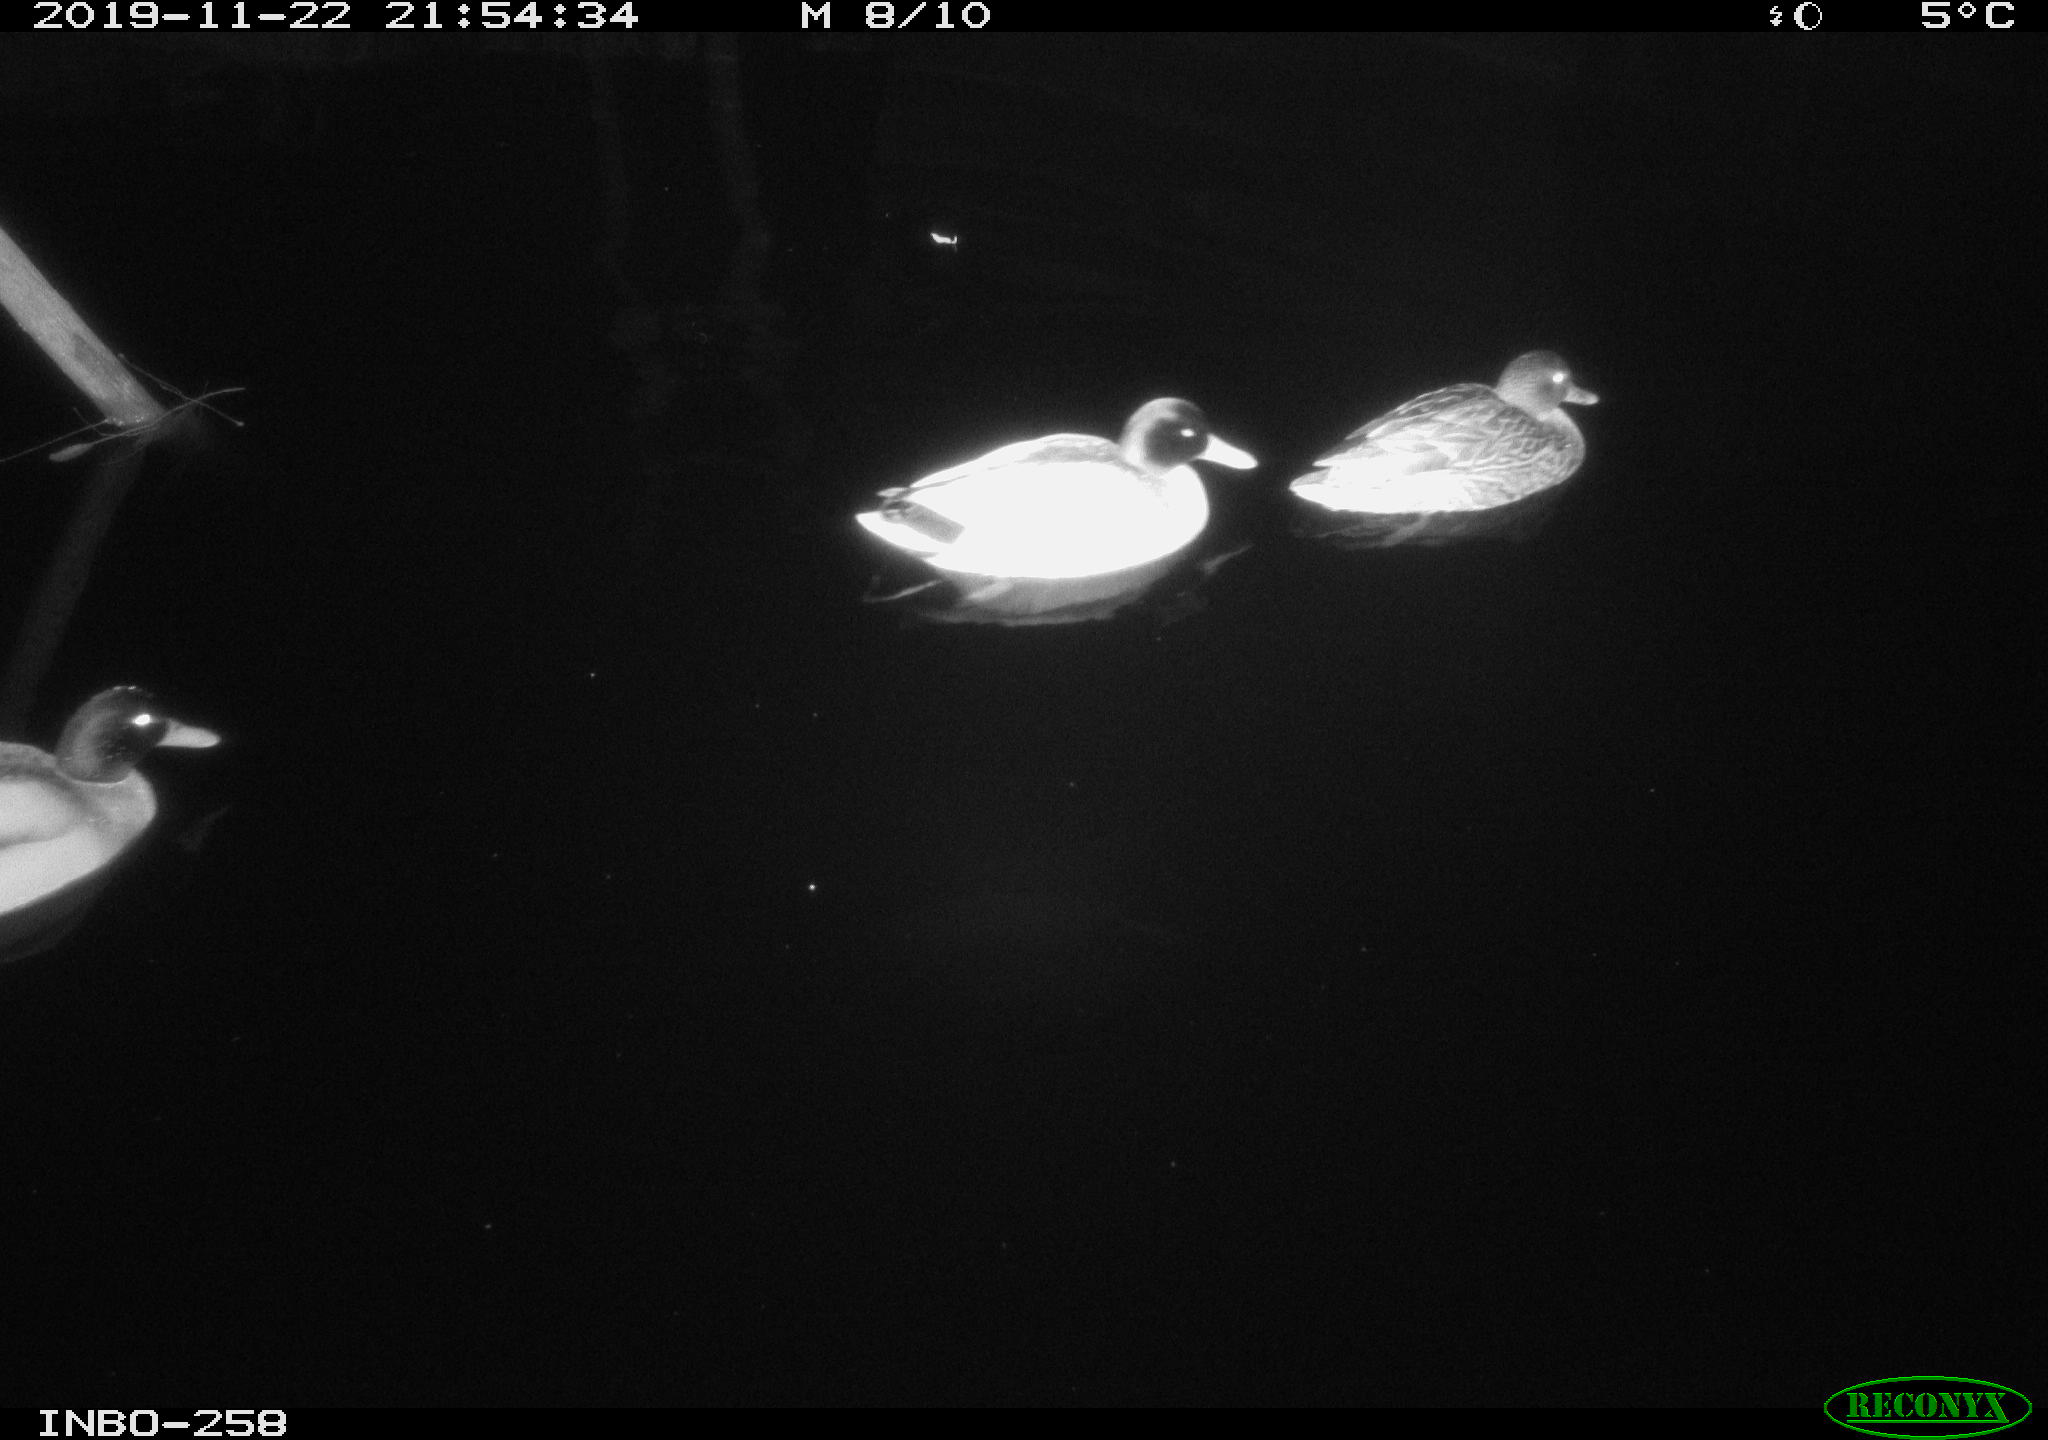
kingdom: Animalia
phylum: Chordata
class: Aves
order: Anseriformes
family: Anatidae
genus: Anas
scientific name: Anas platyrhynchos
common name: Mallard
